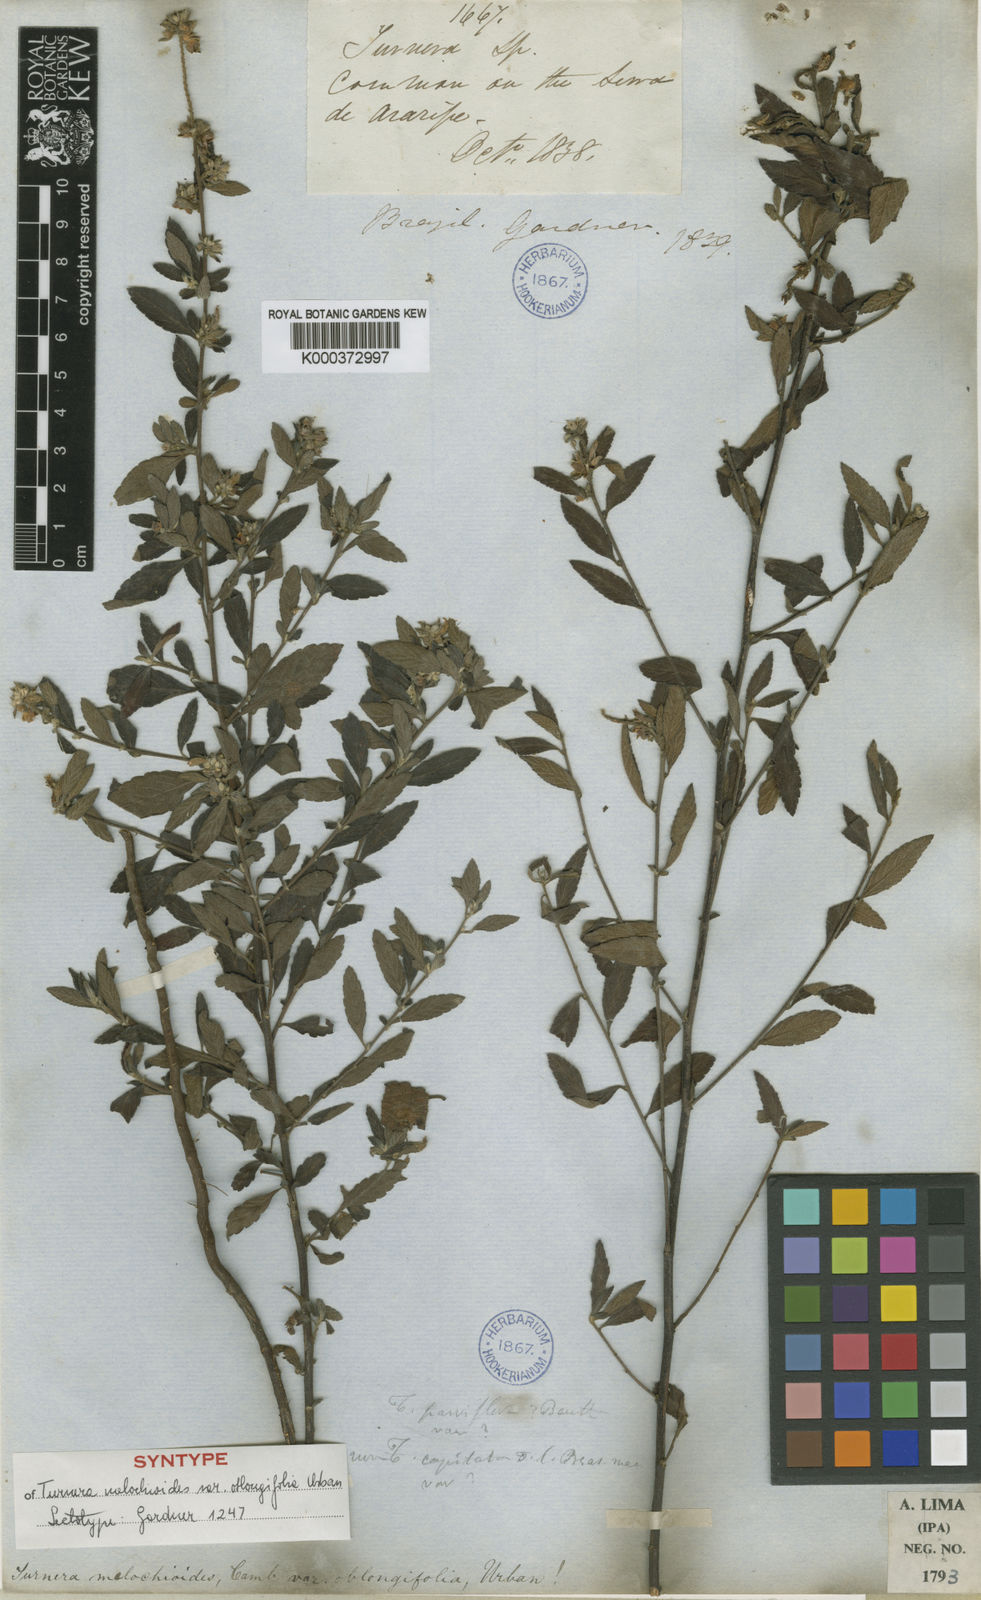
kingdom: Plantae
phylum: Tracheophyta
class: Magnoliopsida
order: Malpighiales
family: Turneraceae
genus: Turnera
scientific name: Turnera arenaria
